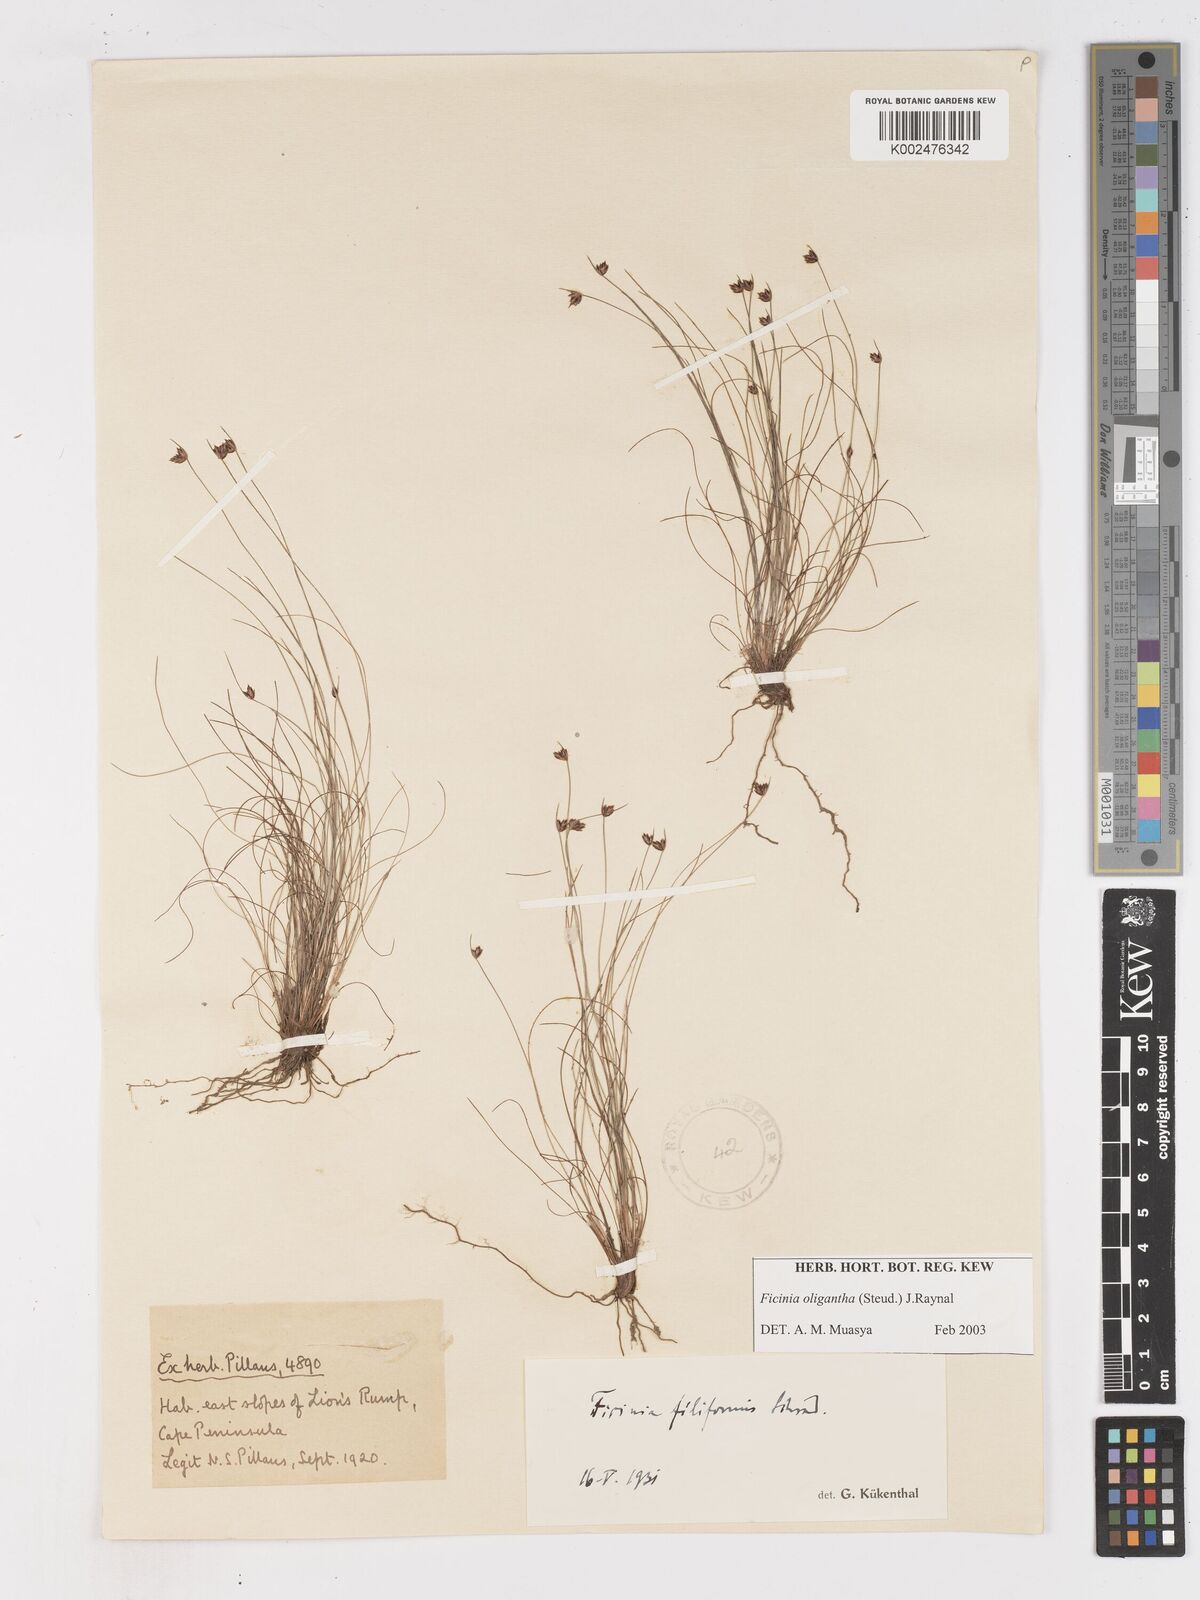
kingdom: Plantae
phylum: Tracheophyta
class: Liliopsida
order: Poales
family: Cyperaceae
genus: Ficinia
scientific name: Ficinia oligantha
